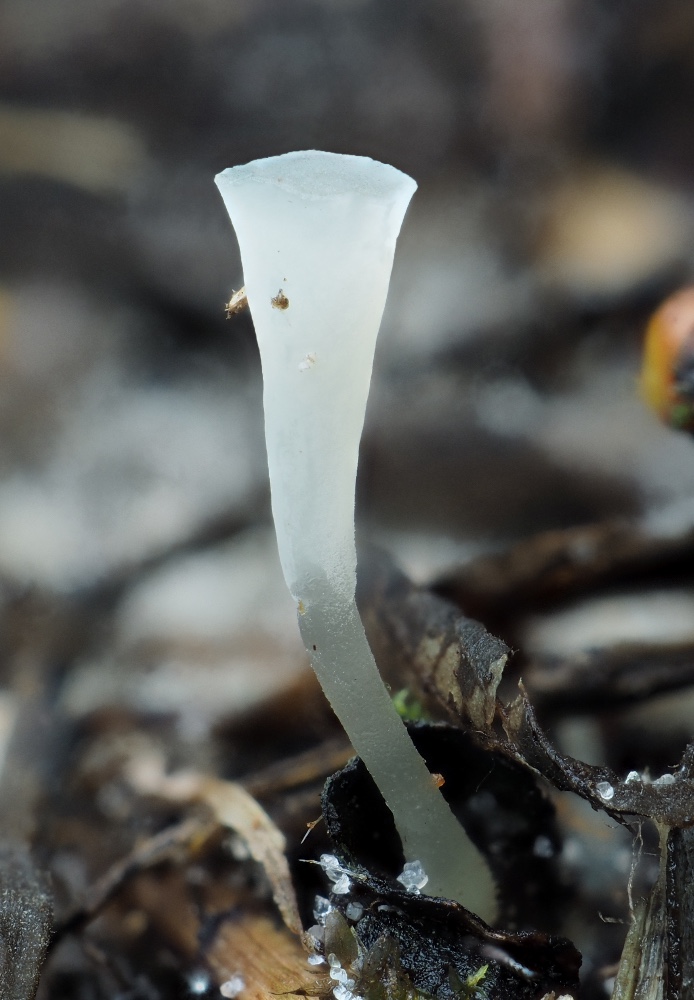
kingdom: Fungi
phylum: Basidiomycota
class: Agaricomycetes
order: Agaricales
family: Clavariaceae
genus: Clavicorona
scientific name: Clavicorona taxophila
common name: trompetkølle
